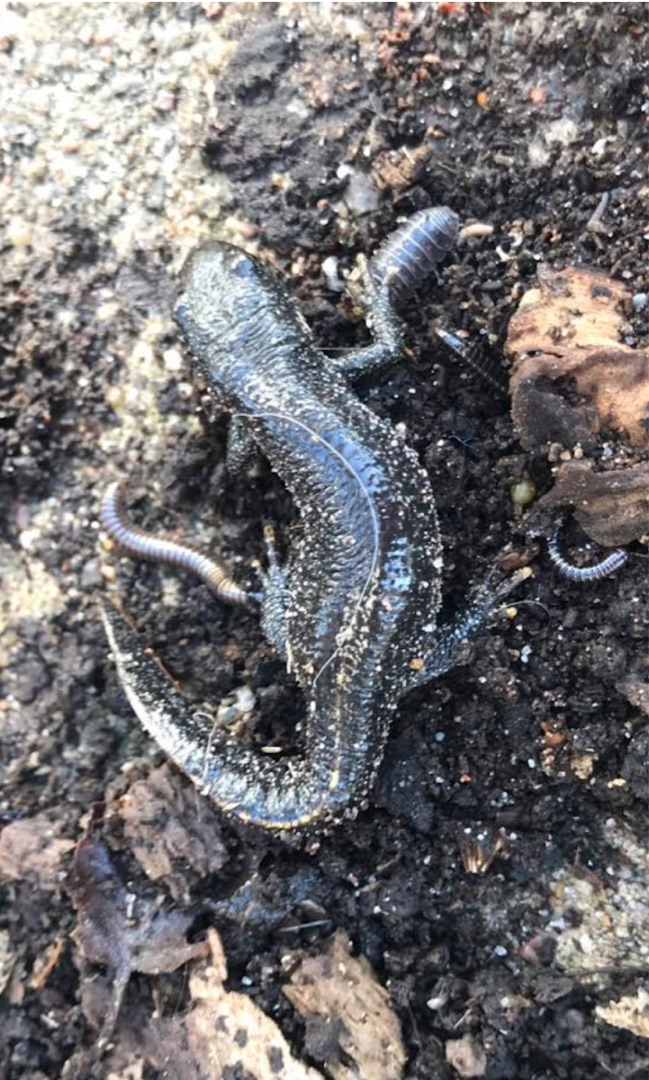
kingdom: Animalia
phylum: Chordata
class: Amphibia
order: Caudata
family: Salamandridae
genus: Triturus
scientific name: Triturus cristatus
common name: Stor vandsalamander
